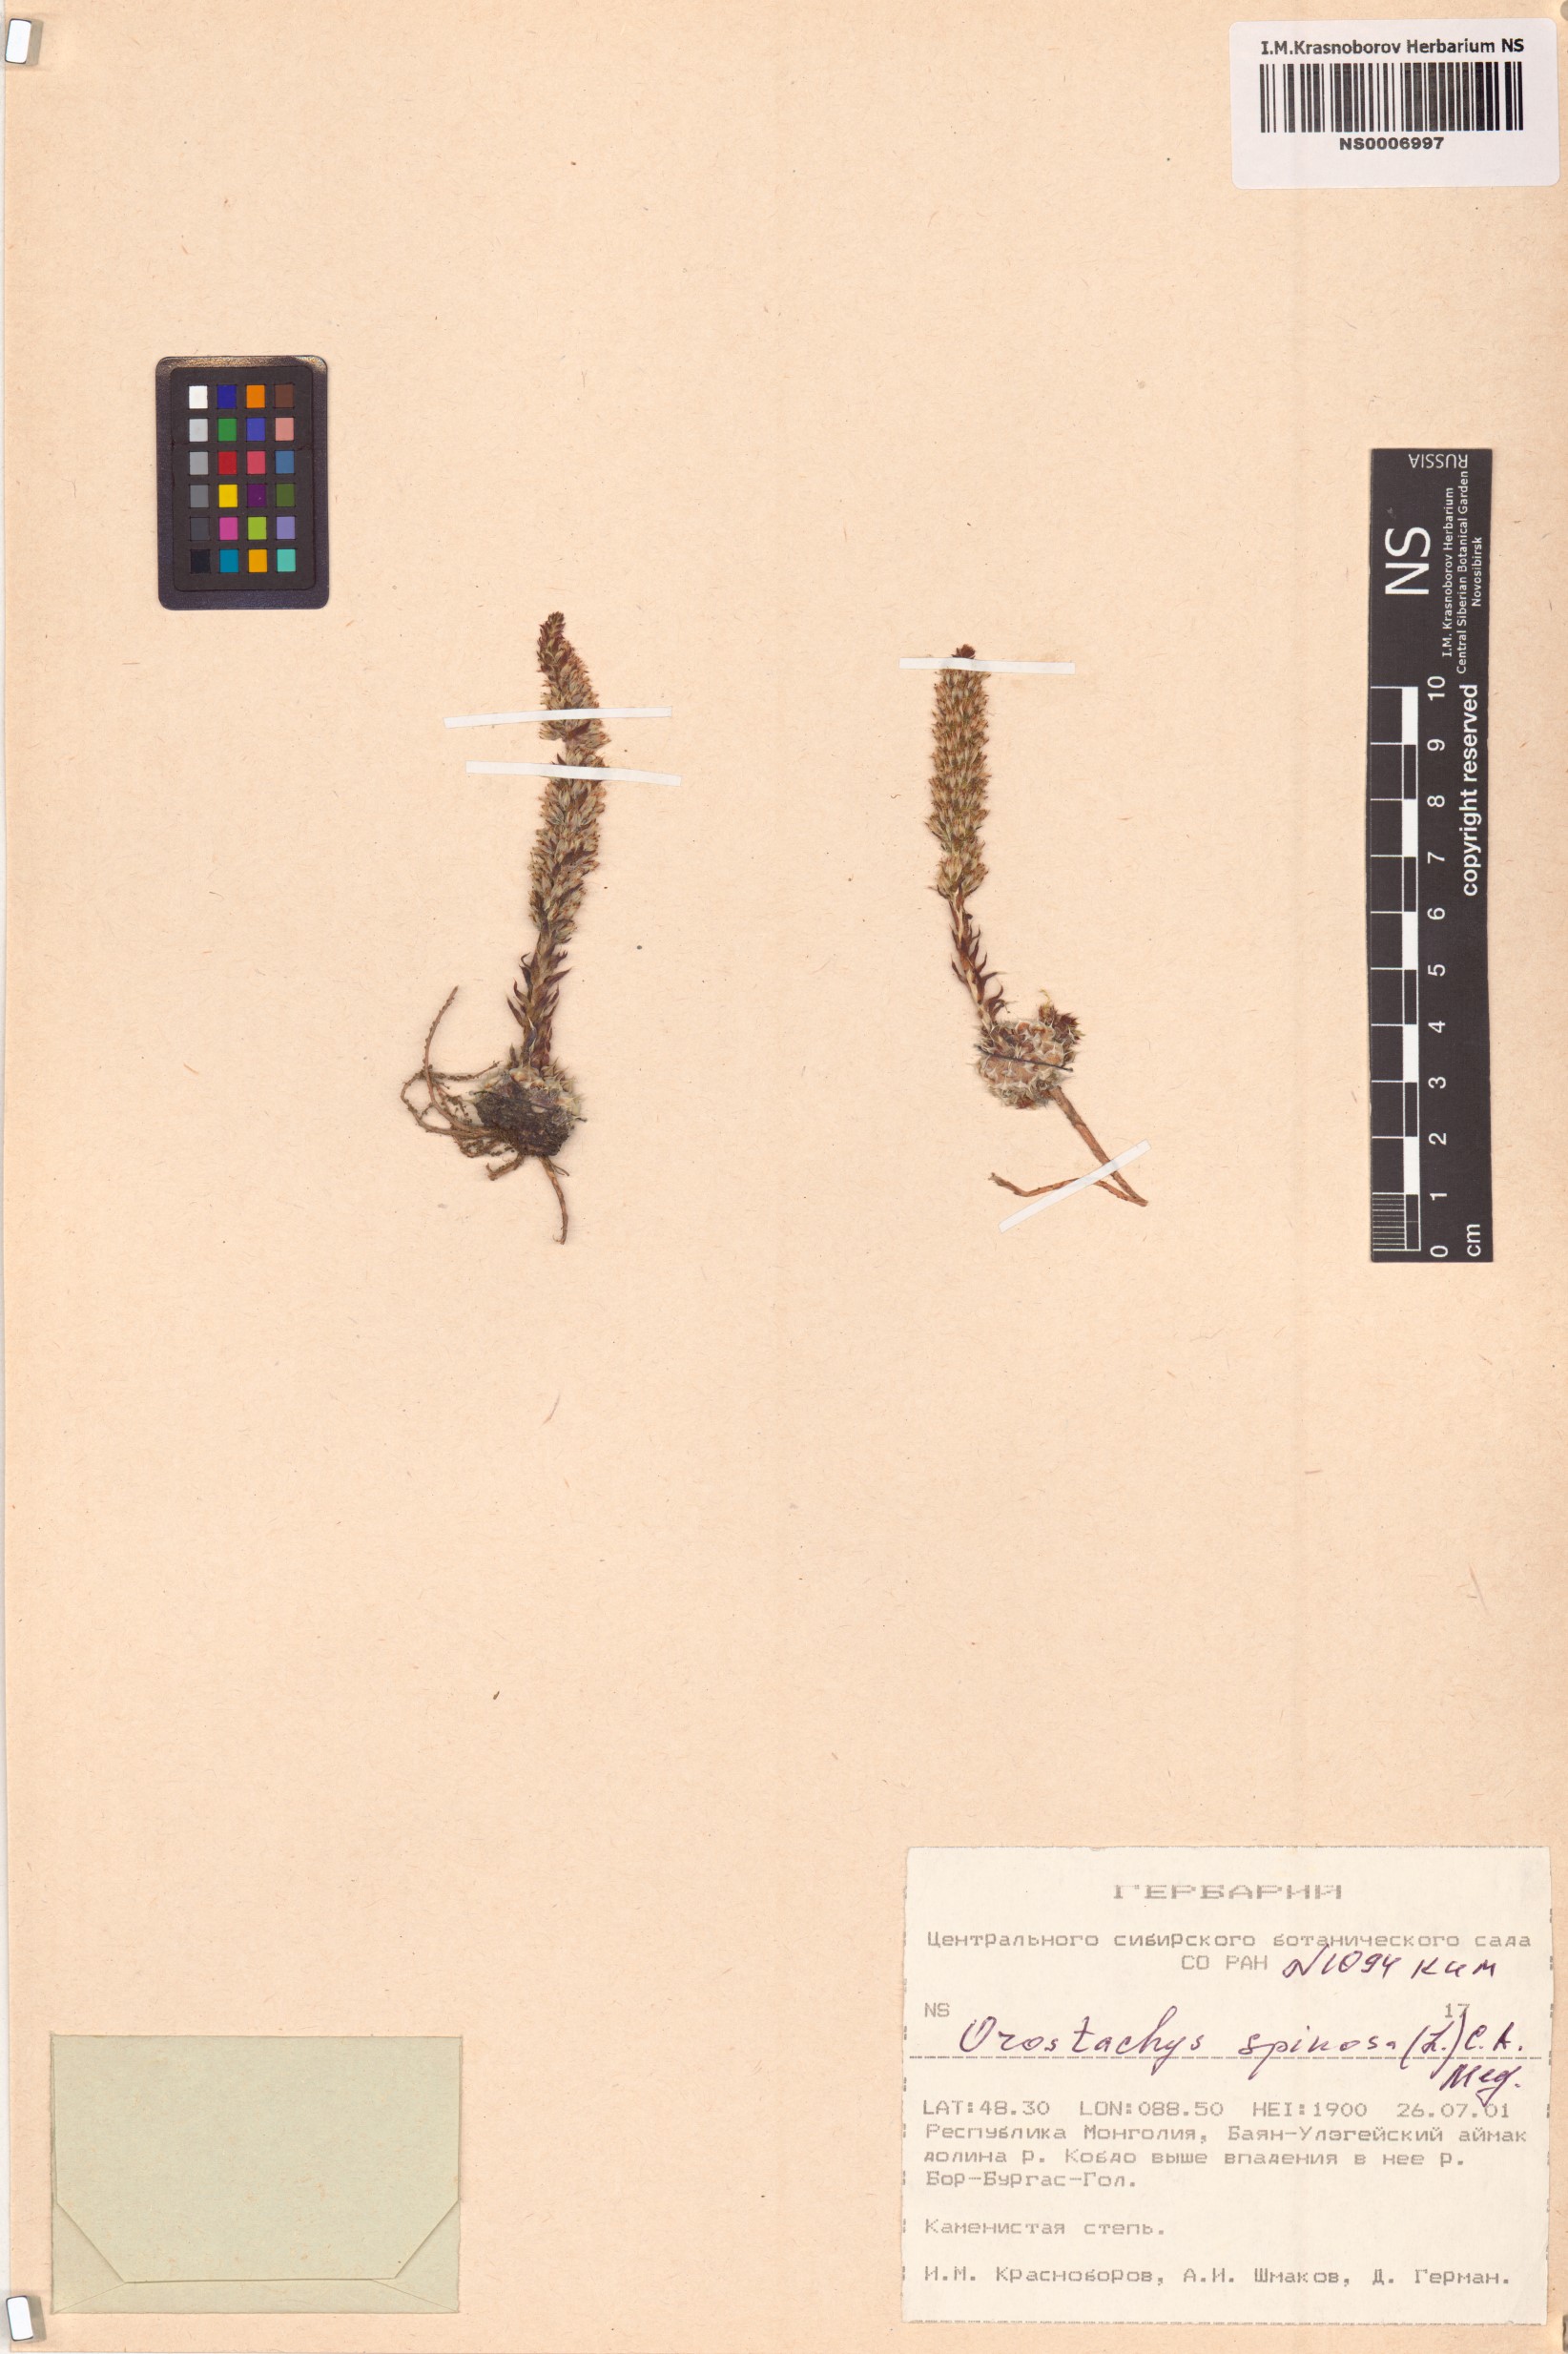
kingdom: Plantae
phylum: Tracheophyta
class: Magnoliopsida
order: Saxifragales
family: Crassulaceae
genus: Orostachys
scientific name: Orostachys spinosa
